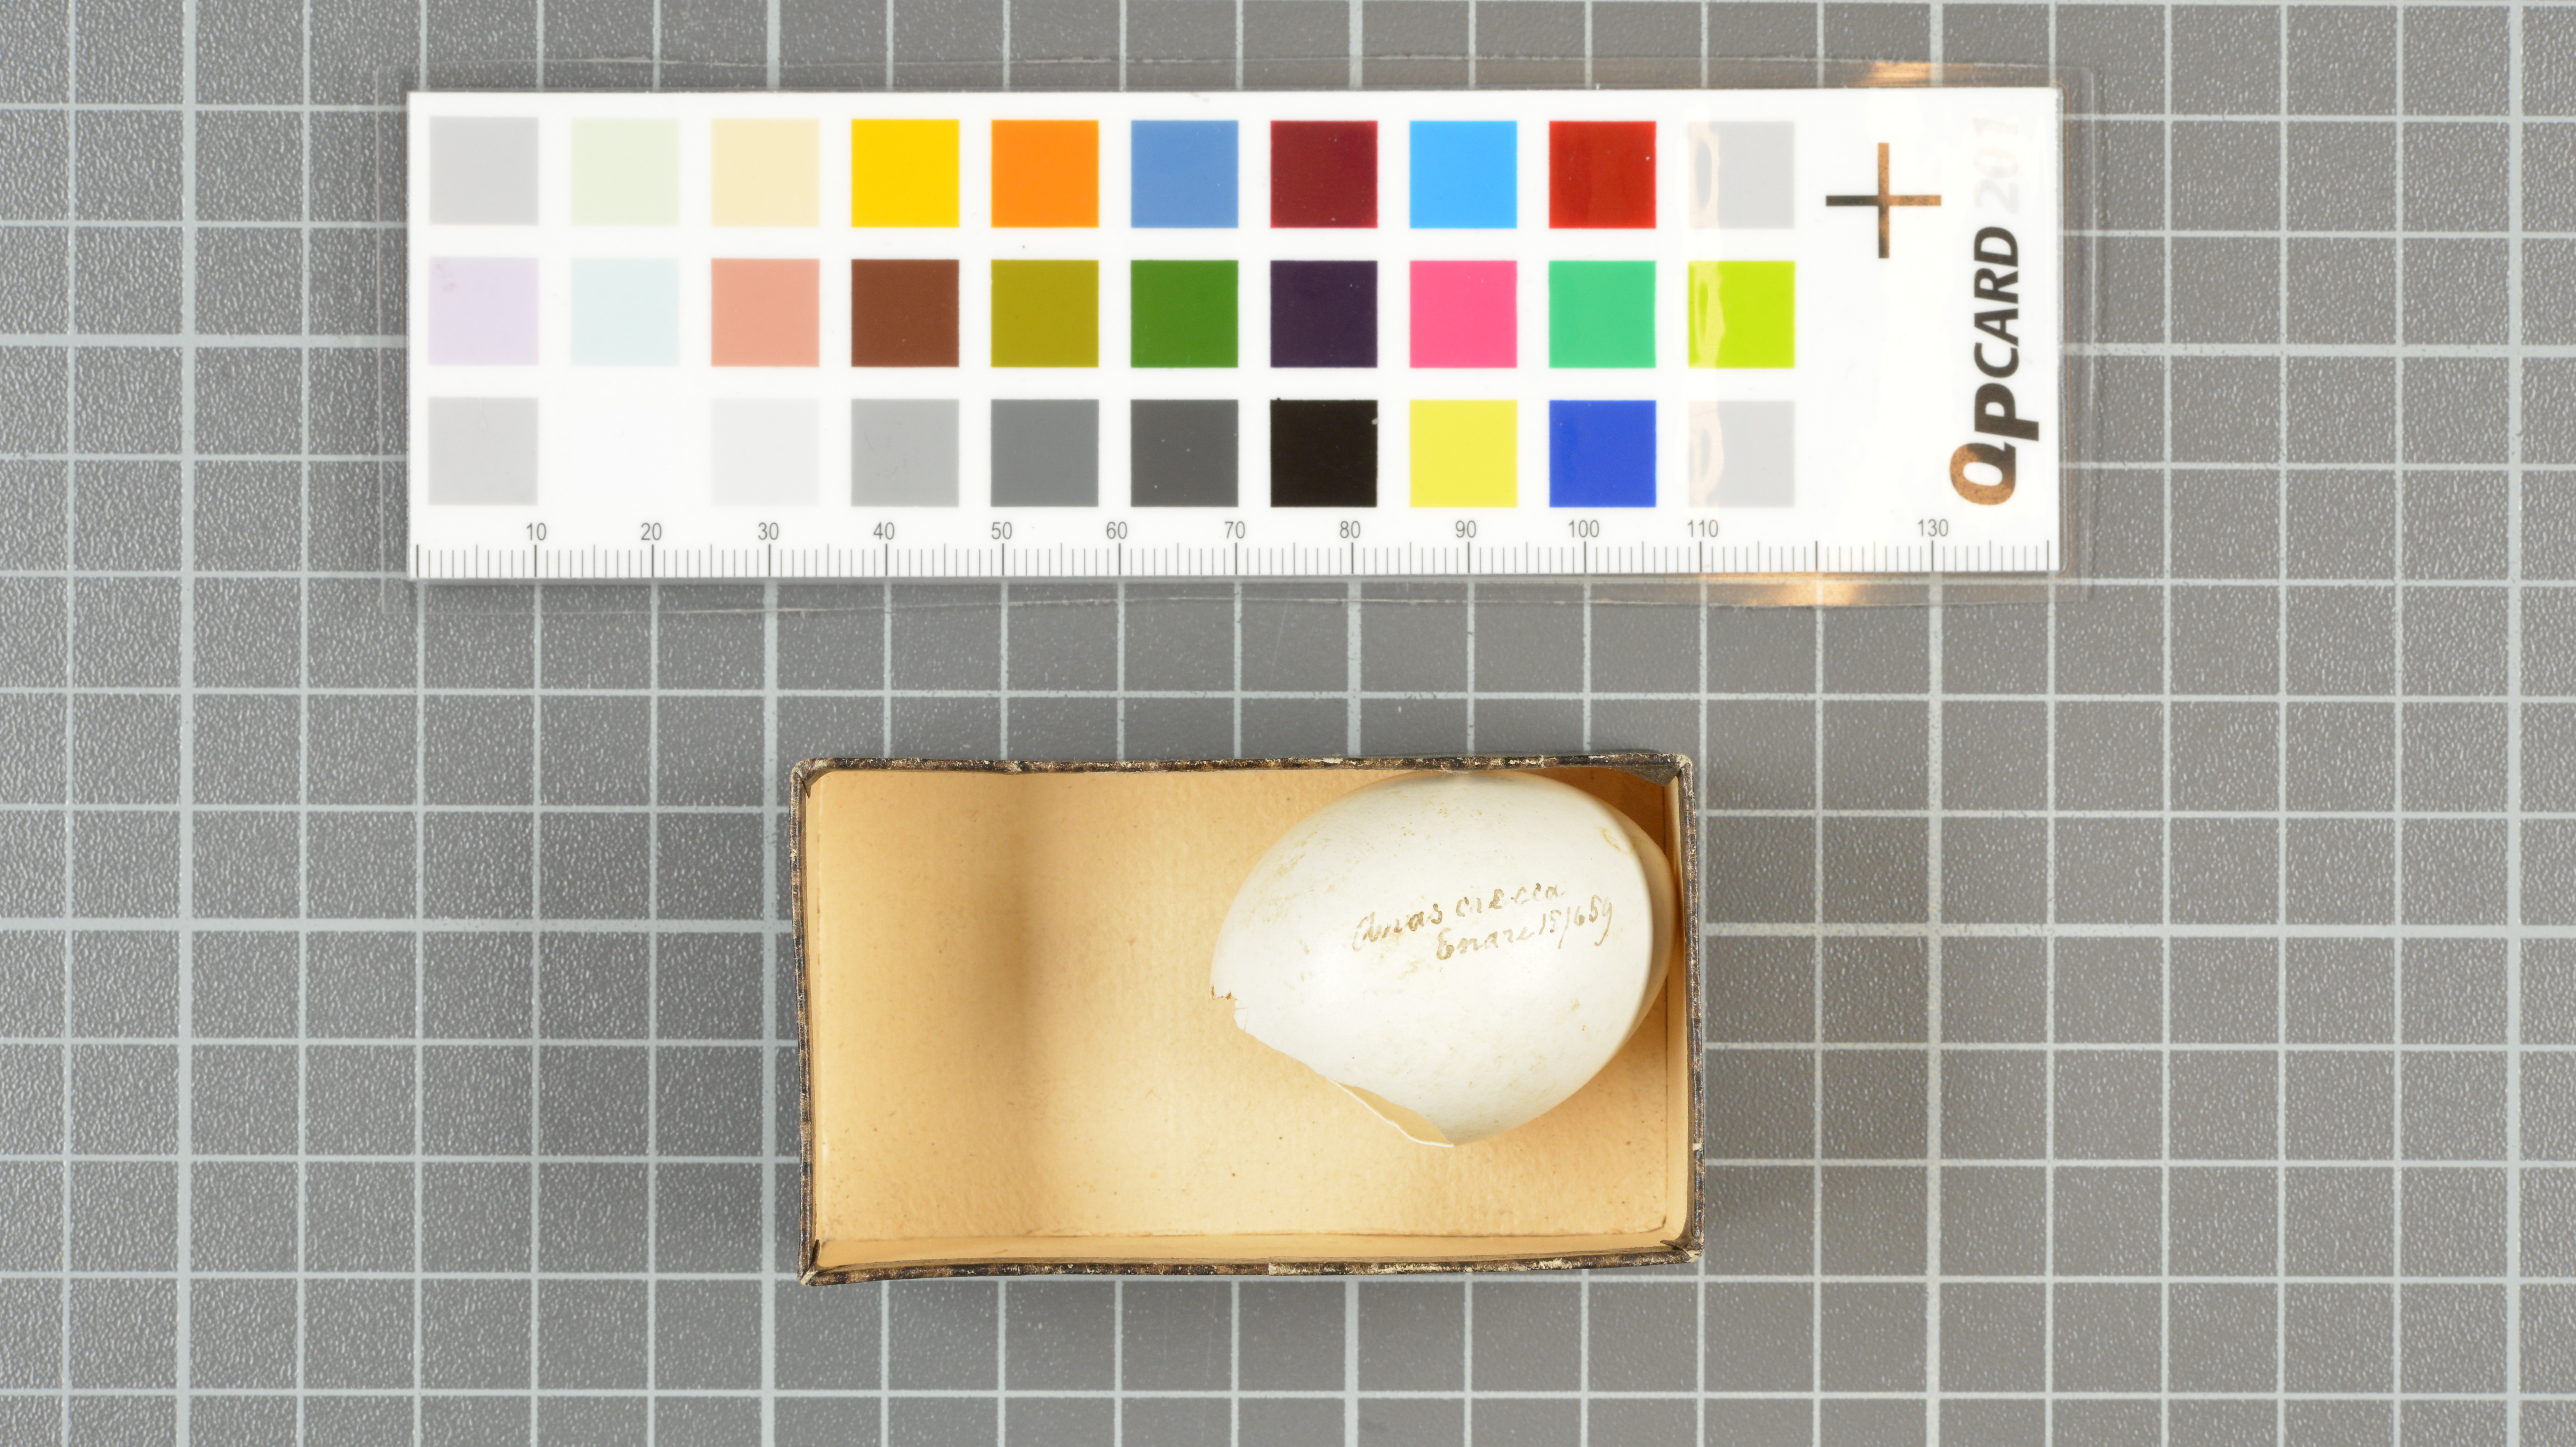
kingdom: Animalia
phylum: Chordata
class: Aves
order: Anseriformes
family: Anatidae
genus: Anas
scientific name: Anas crecca
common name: Eurasian teal
